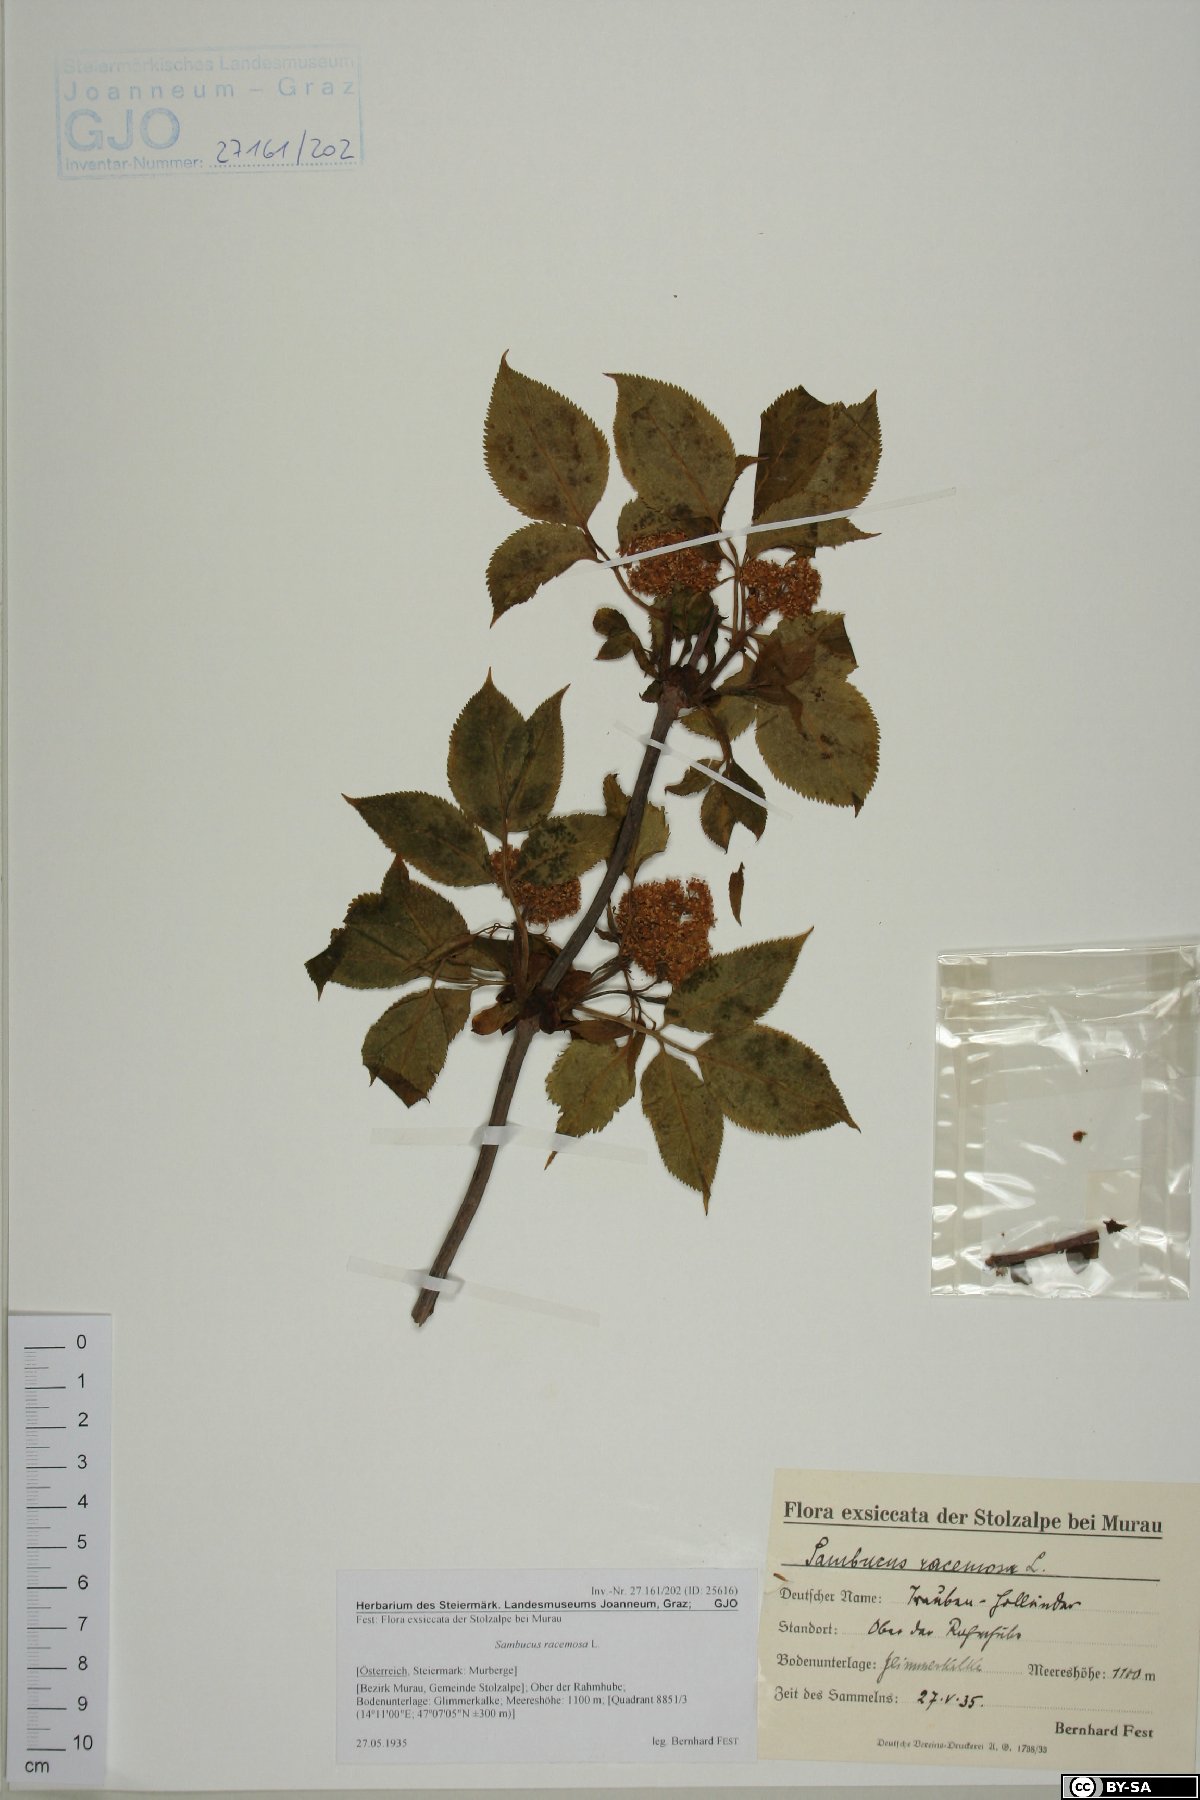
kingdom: Plantae
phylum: Tracheophyta
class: Magnoliopsida
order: Dipsacales
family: Viburnaceae
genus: Sambucus
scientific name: Sambucus racemosa
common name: Red-berried elder
